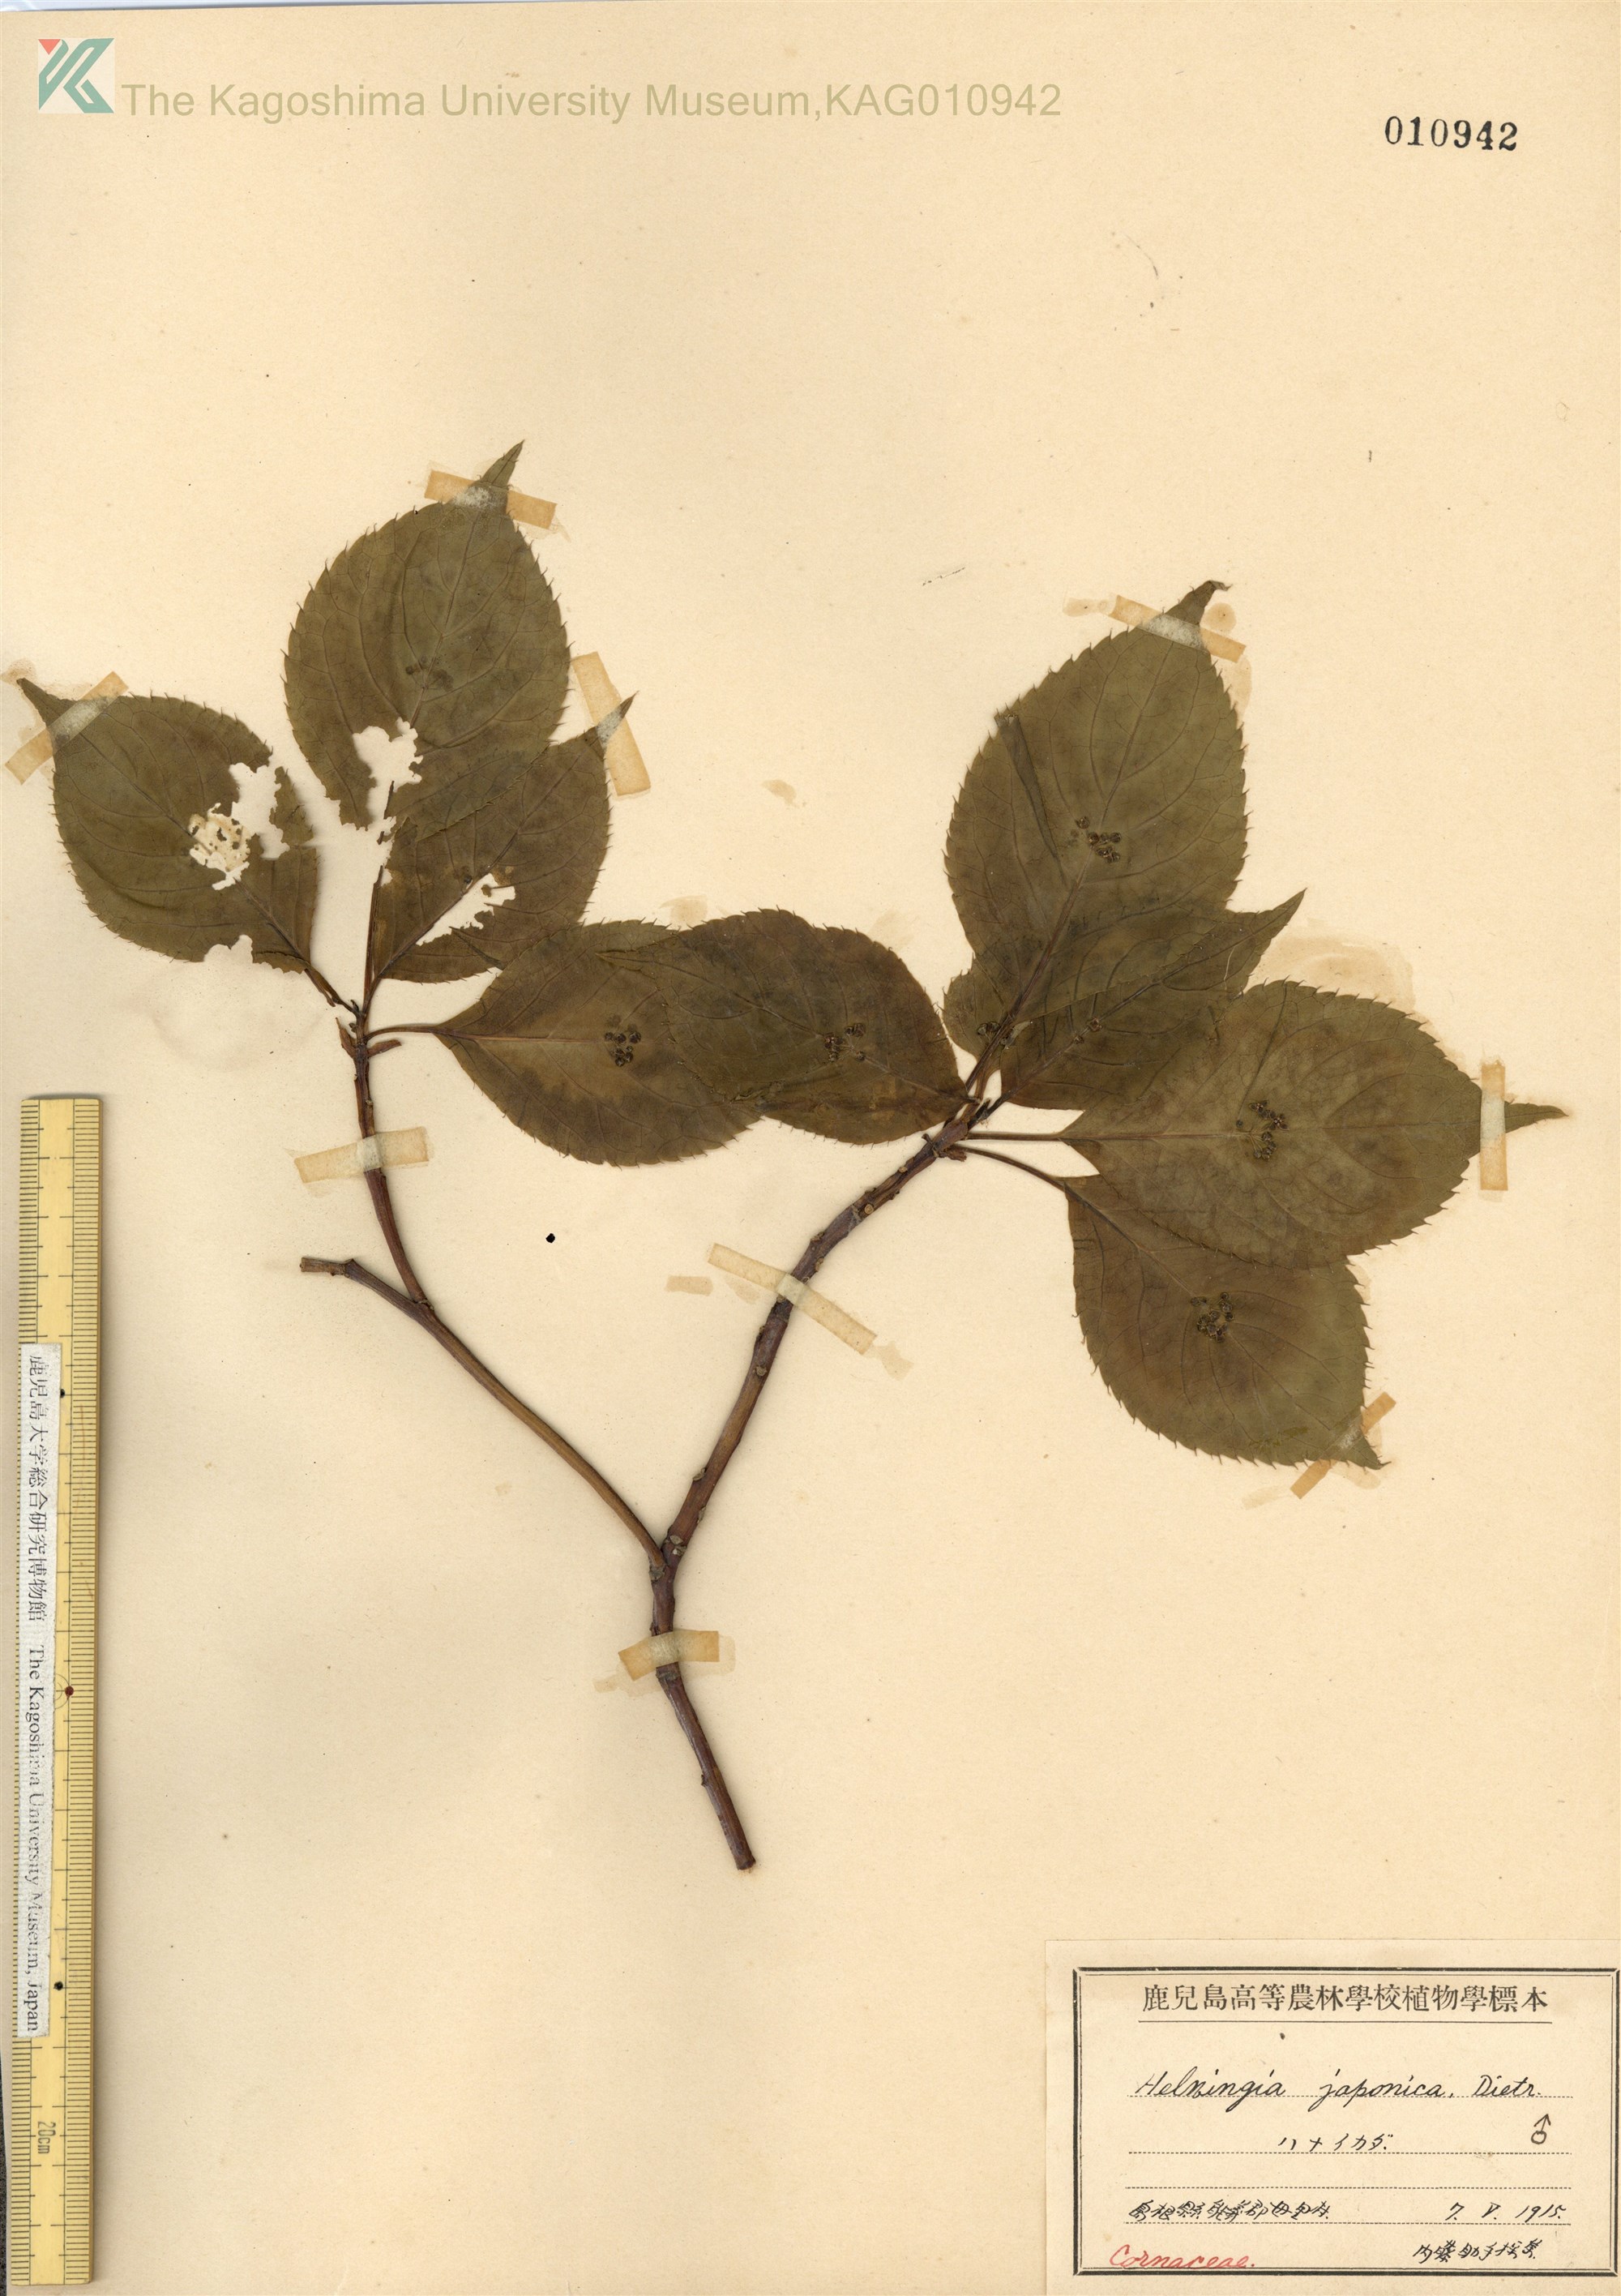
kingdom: Plantae
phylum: Tracheophyta
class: Magnoliopsida
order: Aquifoliales
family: Helwingiaceae
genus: Helwingia
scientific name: Helwingia japonica
